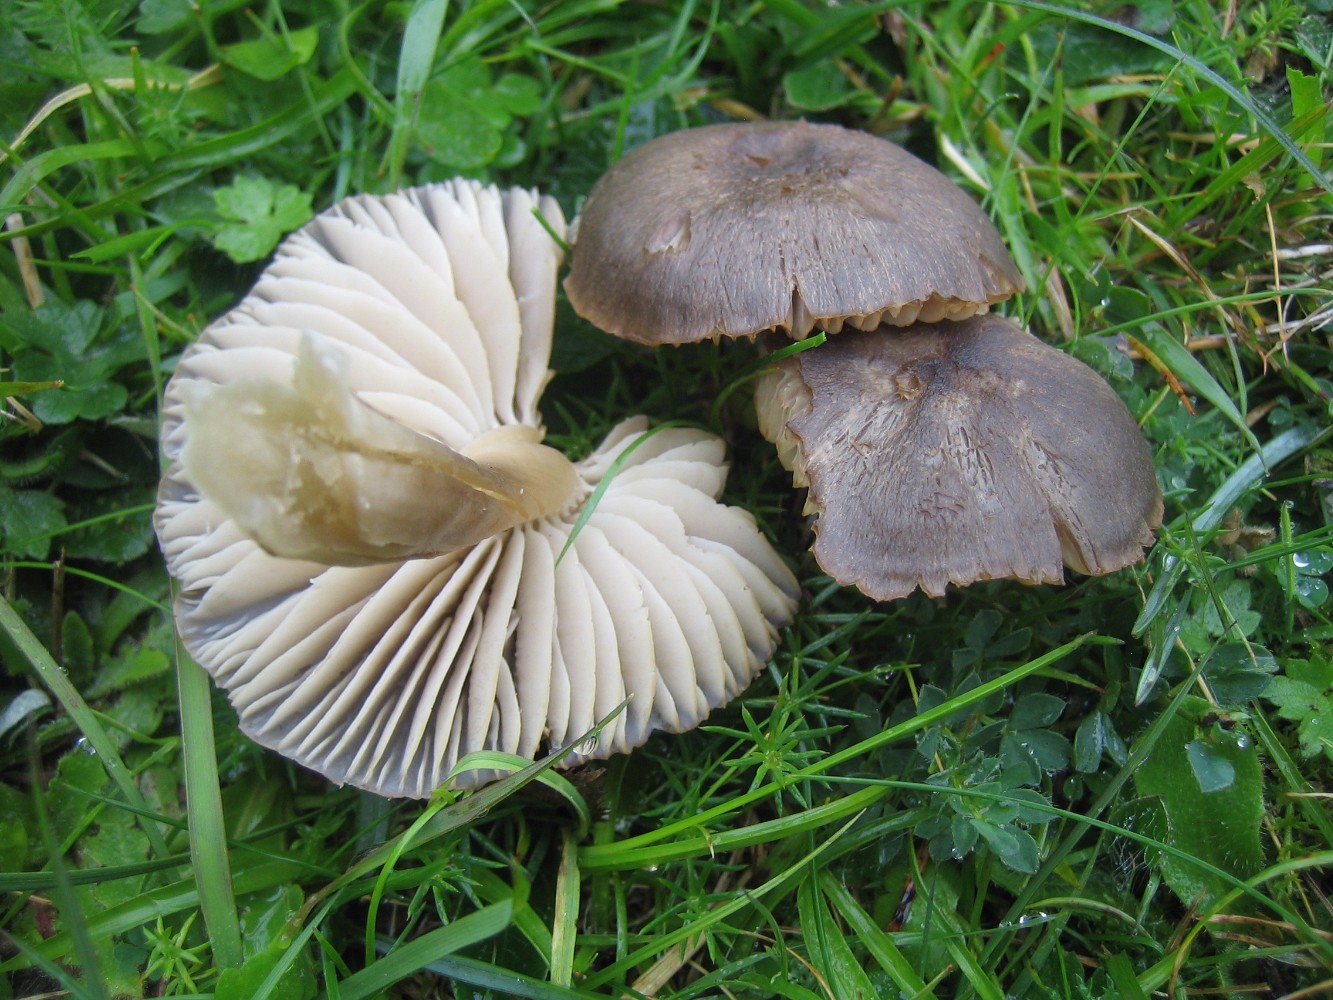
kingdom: Fungi
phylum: Basidiomycota
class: Agaricomycetes
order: Agaricales
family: Hygrophoraceae
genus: Neohygrocybe
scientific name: Neohygrocybe nitrata
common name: stinkende vokshat
